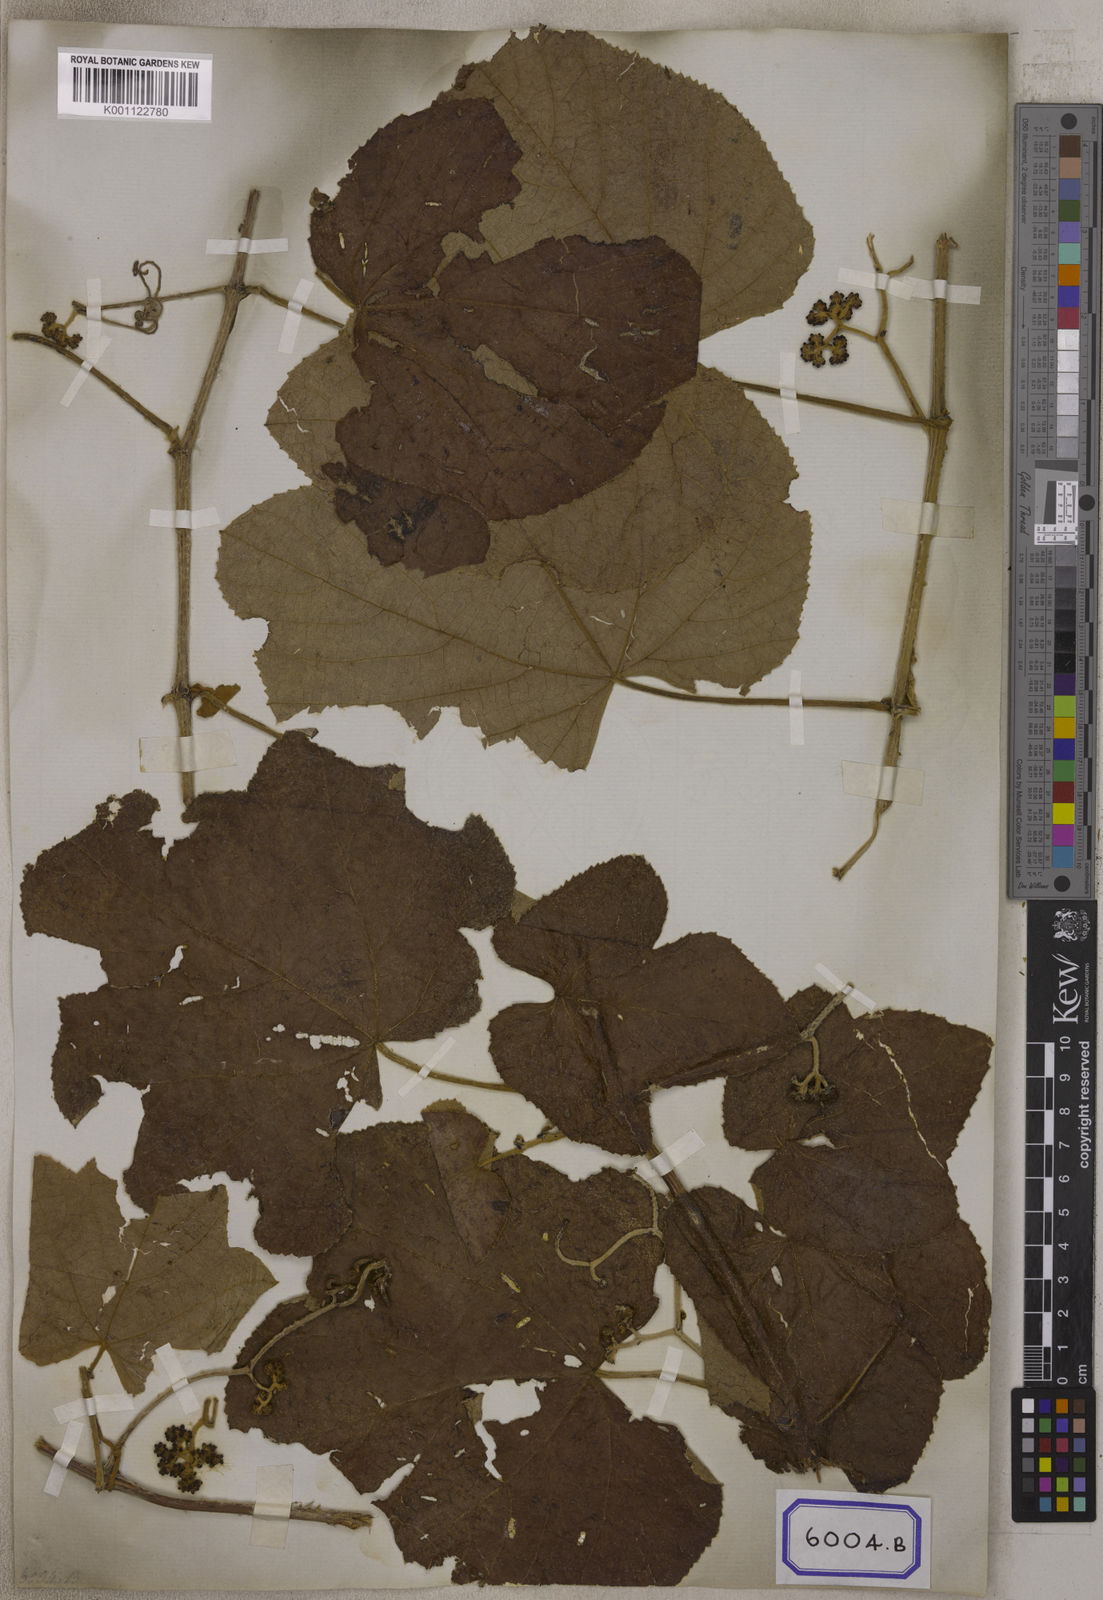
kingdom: Plantae
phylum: Tracheophyta
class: Magnoliopsida
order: Vitales
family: Vitaceae
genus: Ampelocissus
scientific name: Ampelocissus tomentosa
